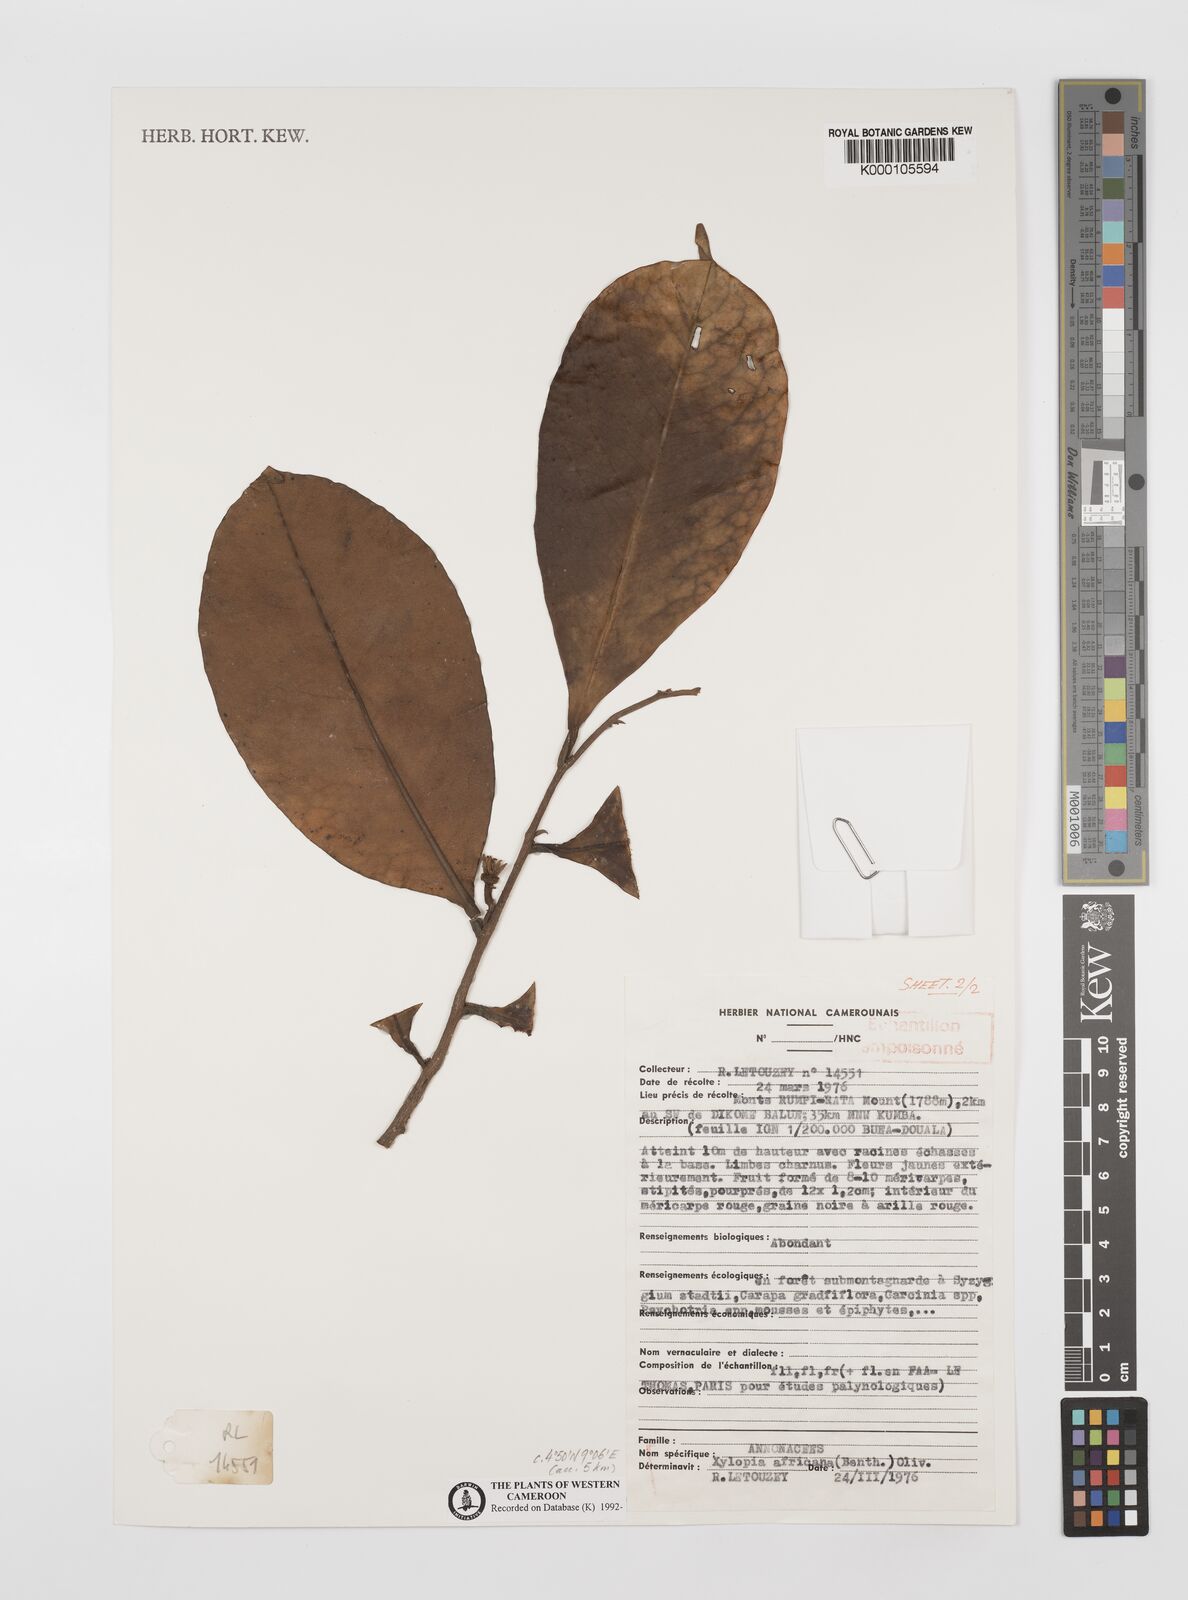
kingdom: Plantae
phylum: Tracheophyta
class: Magnoliopsida
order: Magnoliales
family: Annonaceae
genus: Xylopia
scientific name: Xylopia africana
